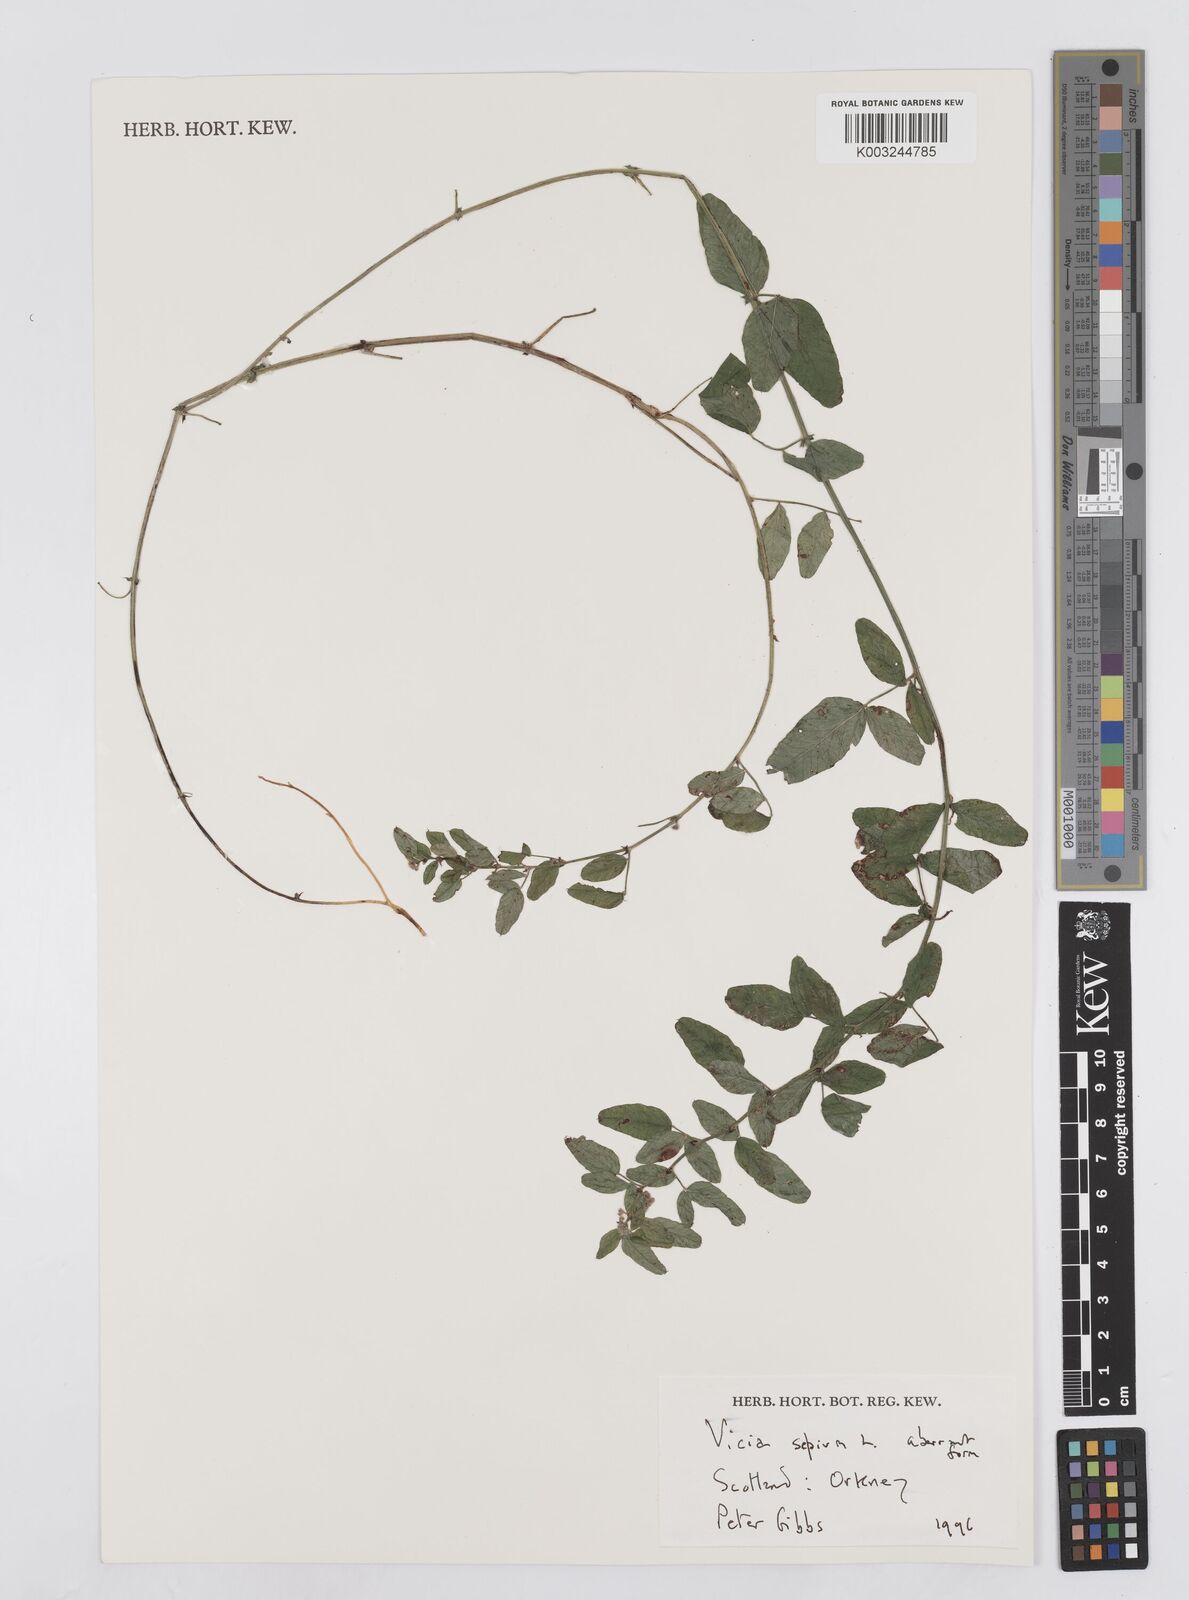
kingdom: Plantae
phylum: Tracheophyta
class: Magnoliopsida
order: Fabales
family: Fabaceae
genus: Vicia
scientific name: Vicia sepium
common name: Bush vetch
